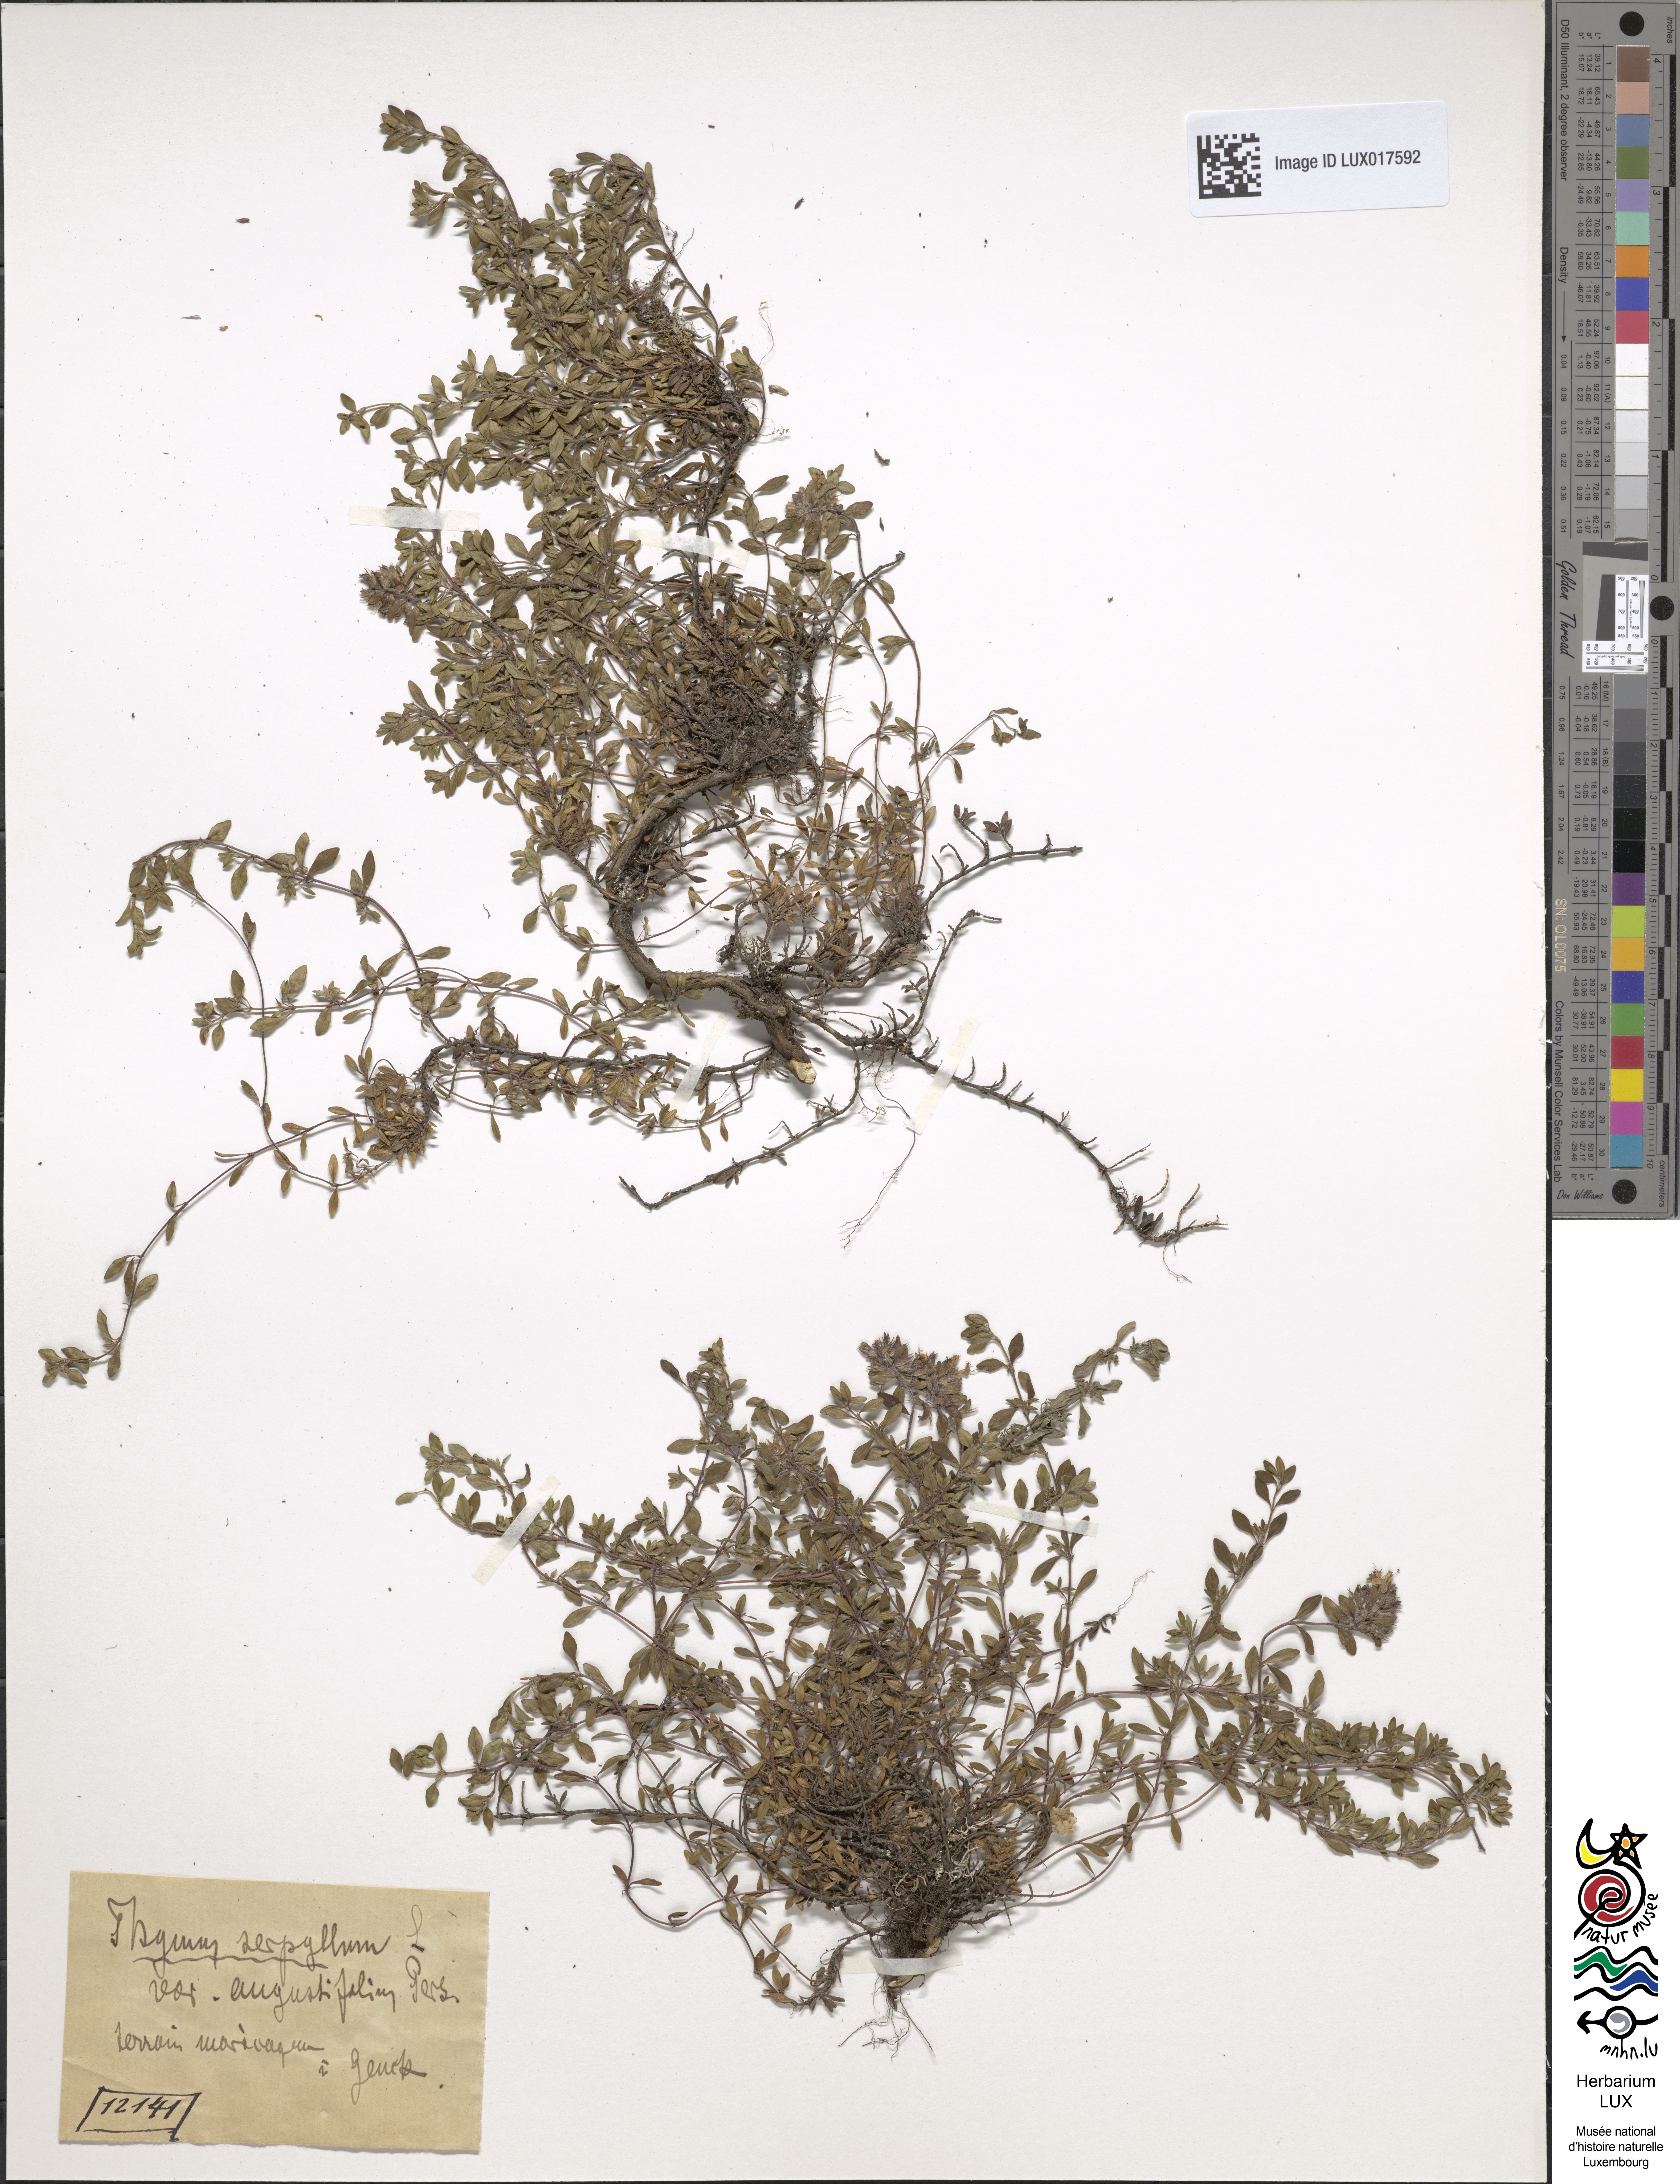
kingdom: Plantae
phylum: Tracheophyta
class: Magnoliopsida
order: Lamiales
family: Lamiaceae
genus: Thymus
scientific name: Thymus serpyllum
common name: Breckland thyme
